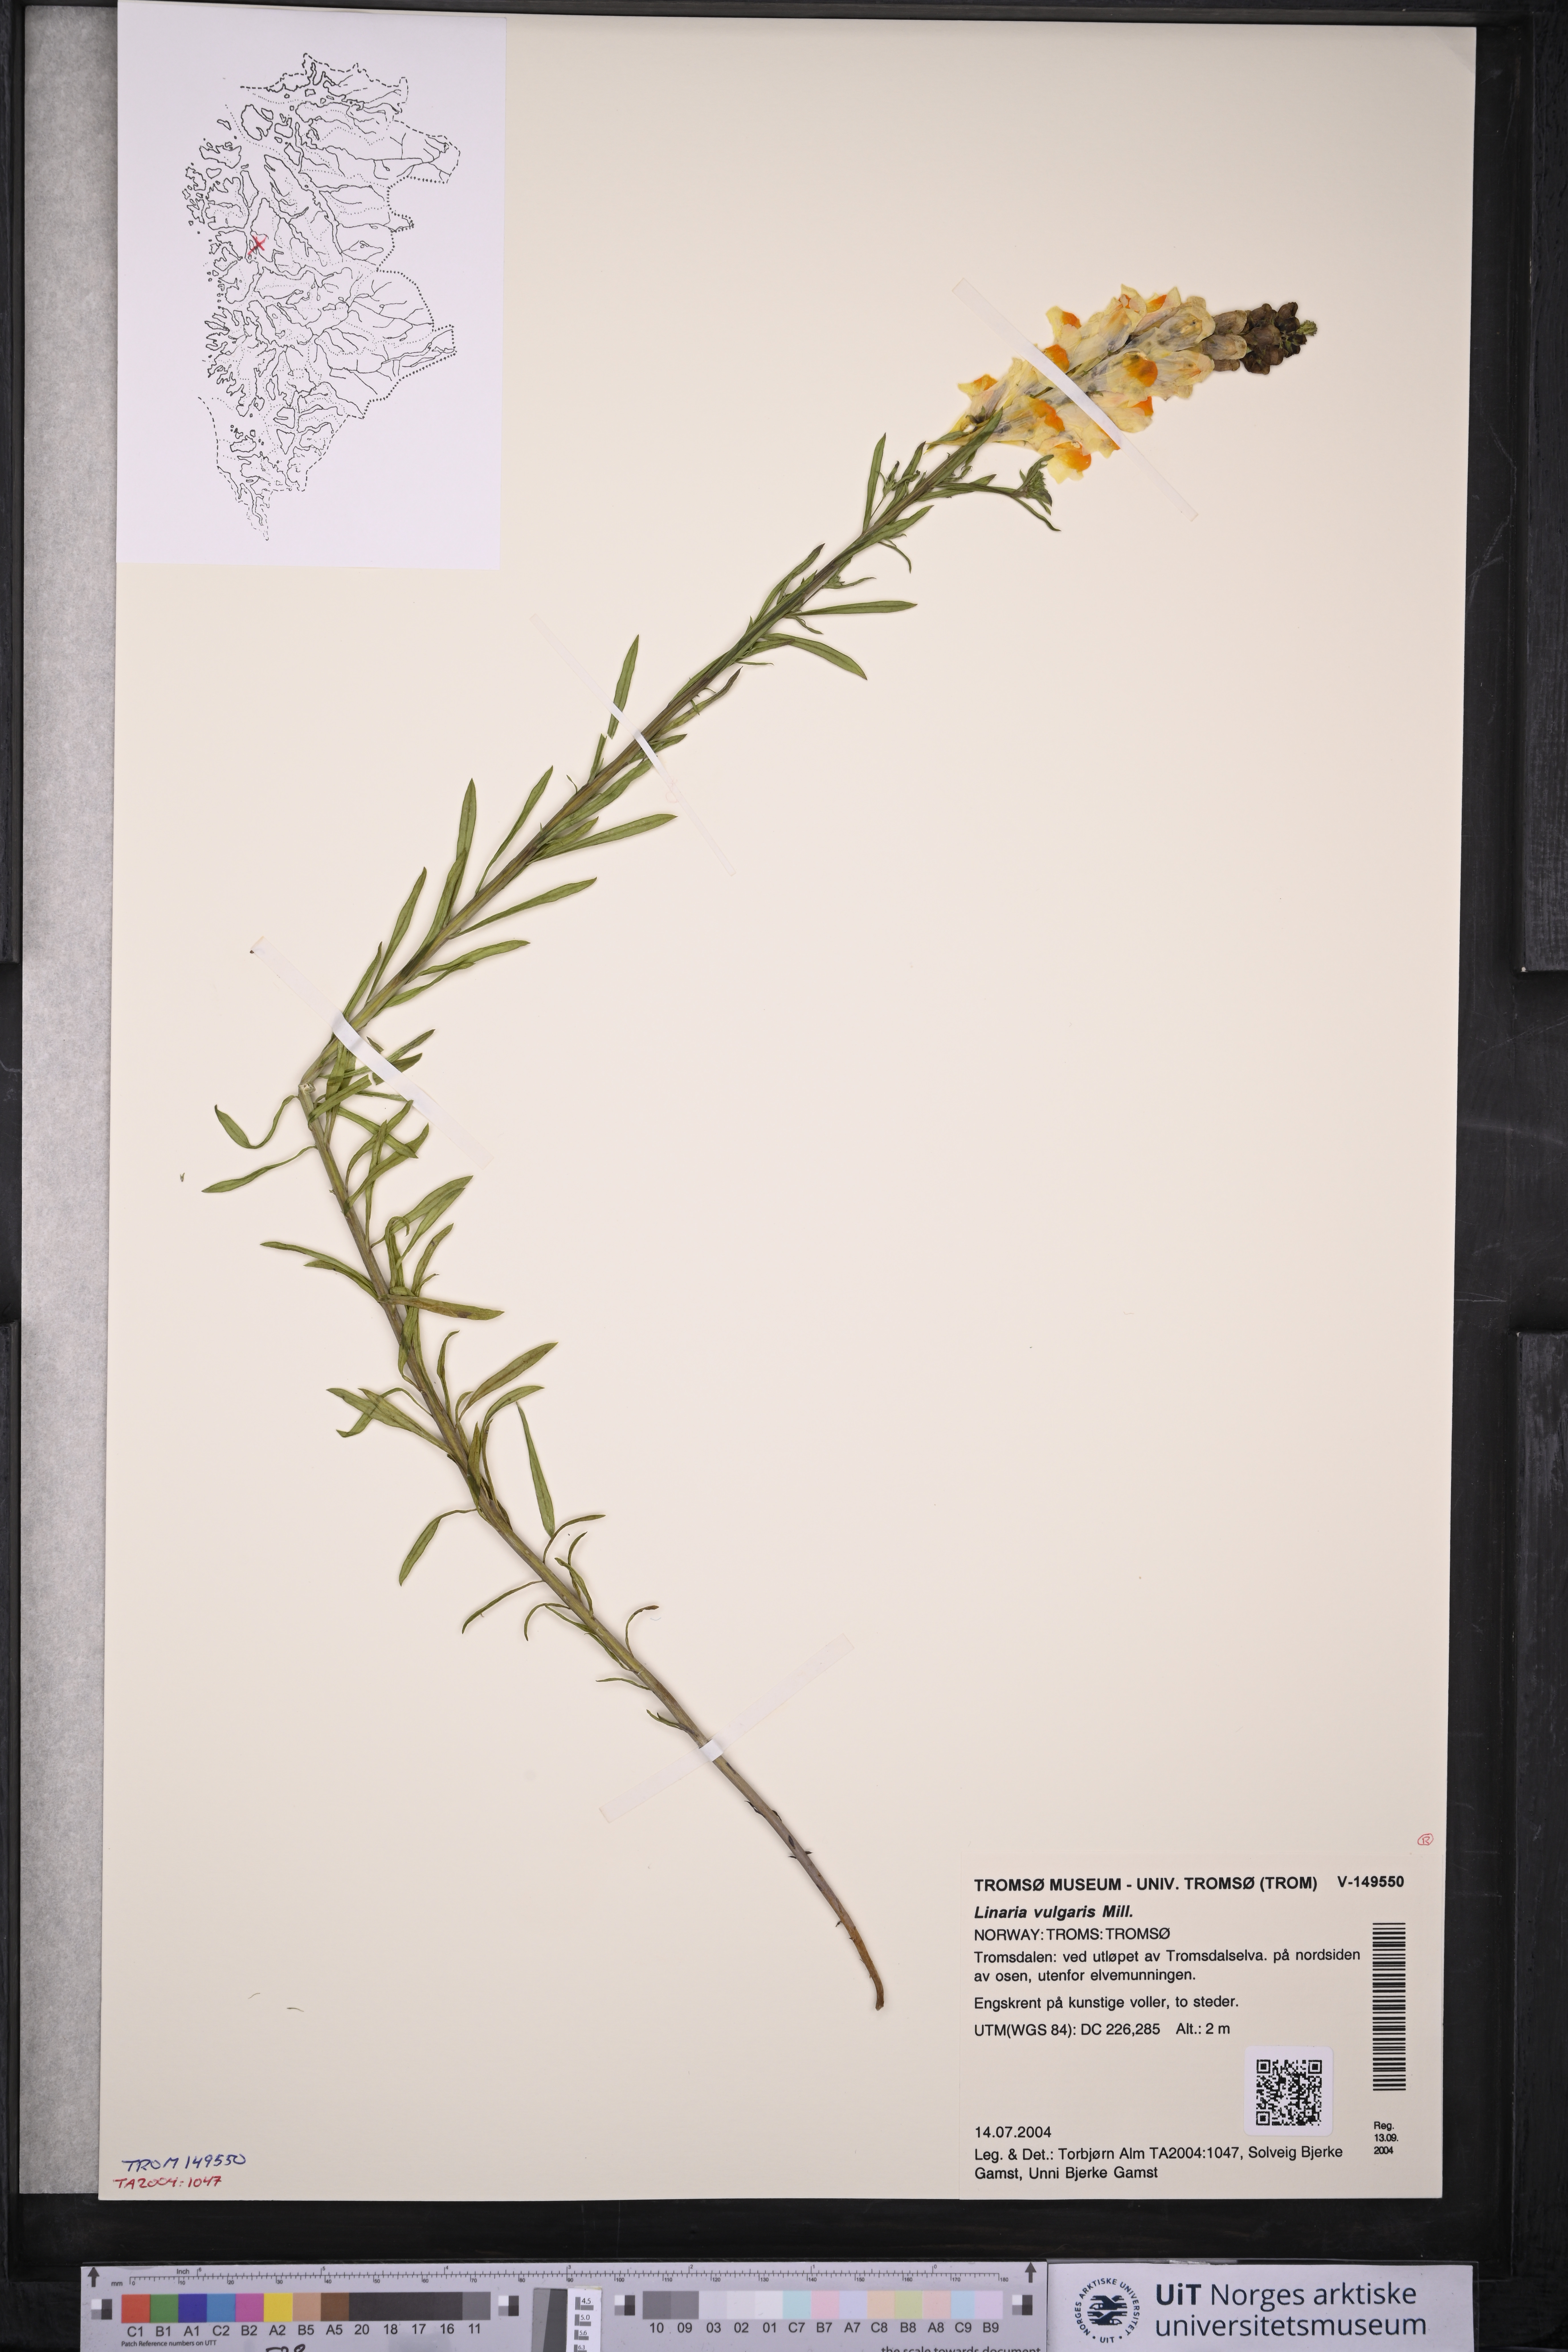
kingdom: Plantae
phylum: Tracheophyta
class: Magnoliopsida
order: Lamiales
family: Plantaginaceae
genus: Linaria
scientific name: Linaria vulgaris
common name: Butter and eggs
